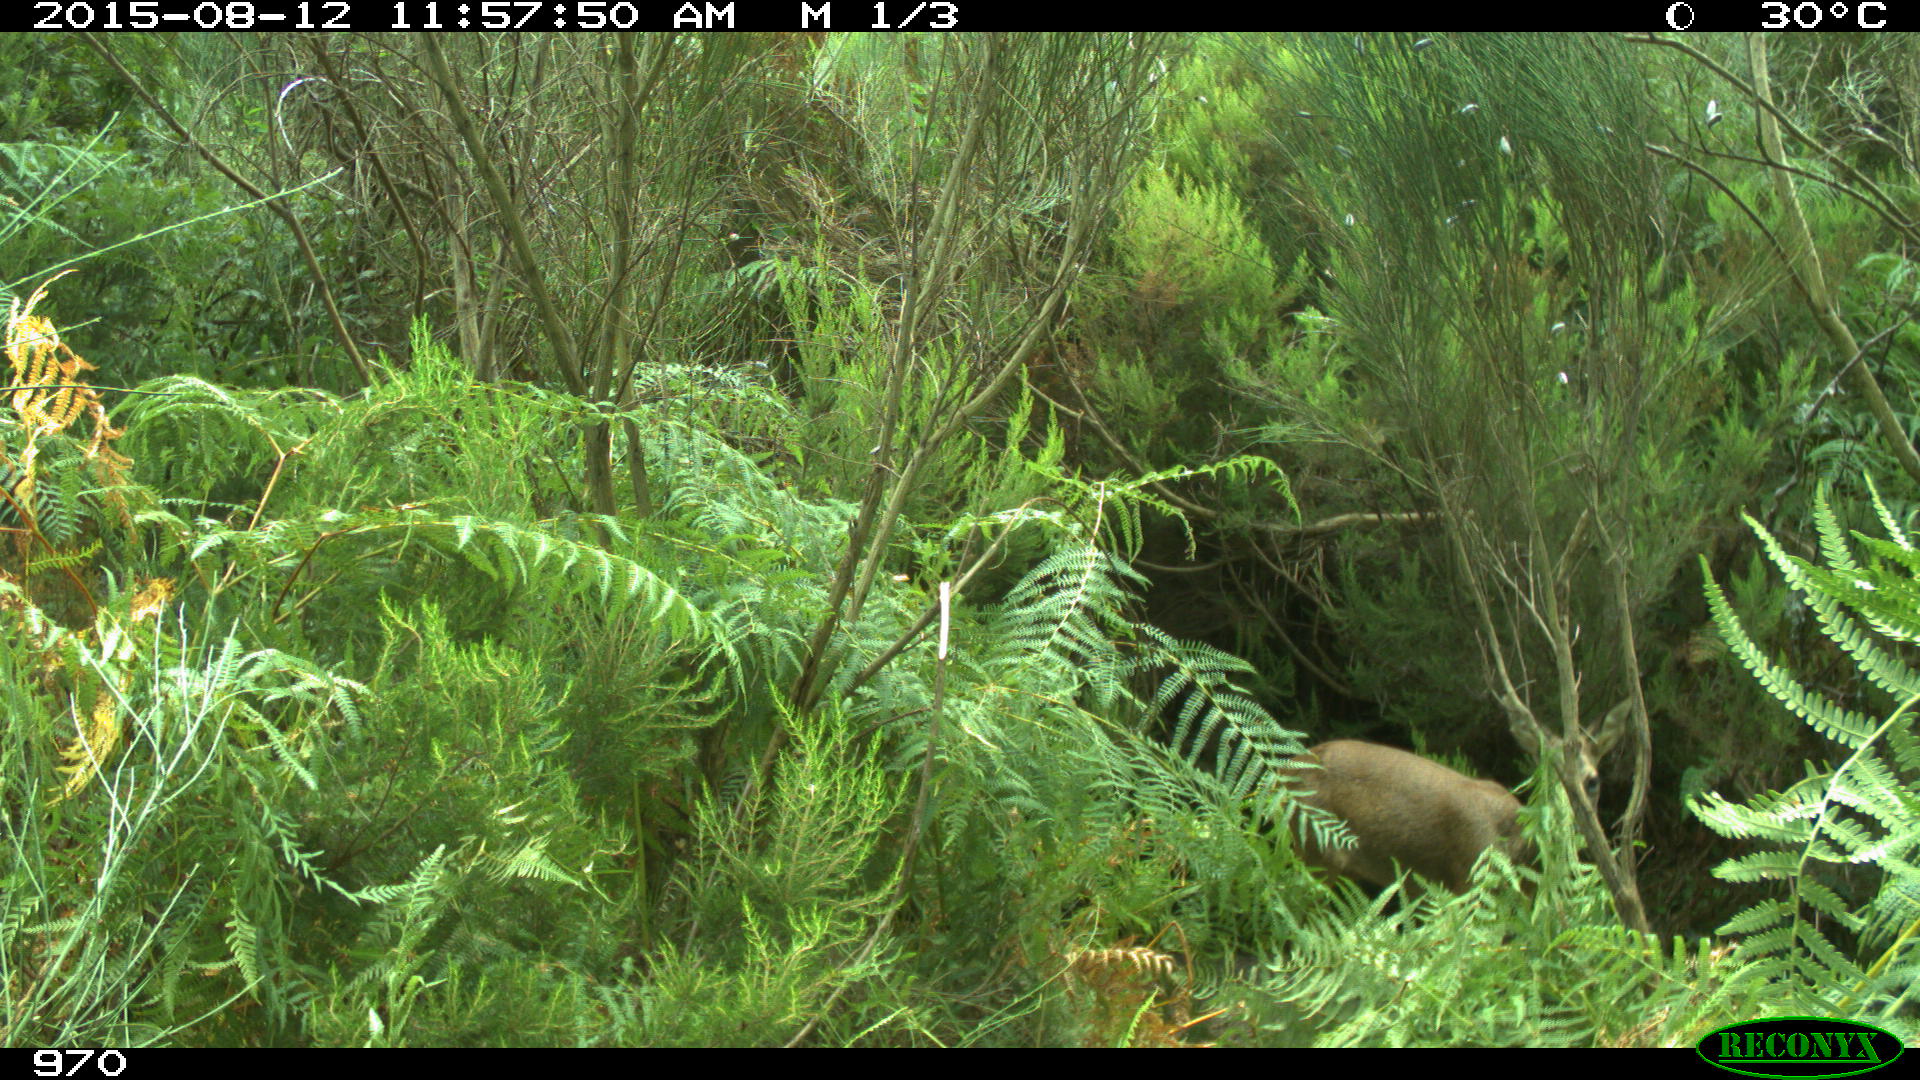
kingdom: Animalia
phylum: Chordata
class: Mammalia
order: Artiodactyla
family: Cervidae
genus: Capreolus
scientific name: Capreolus capreolus
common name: Western roe deer
